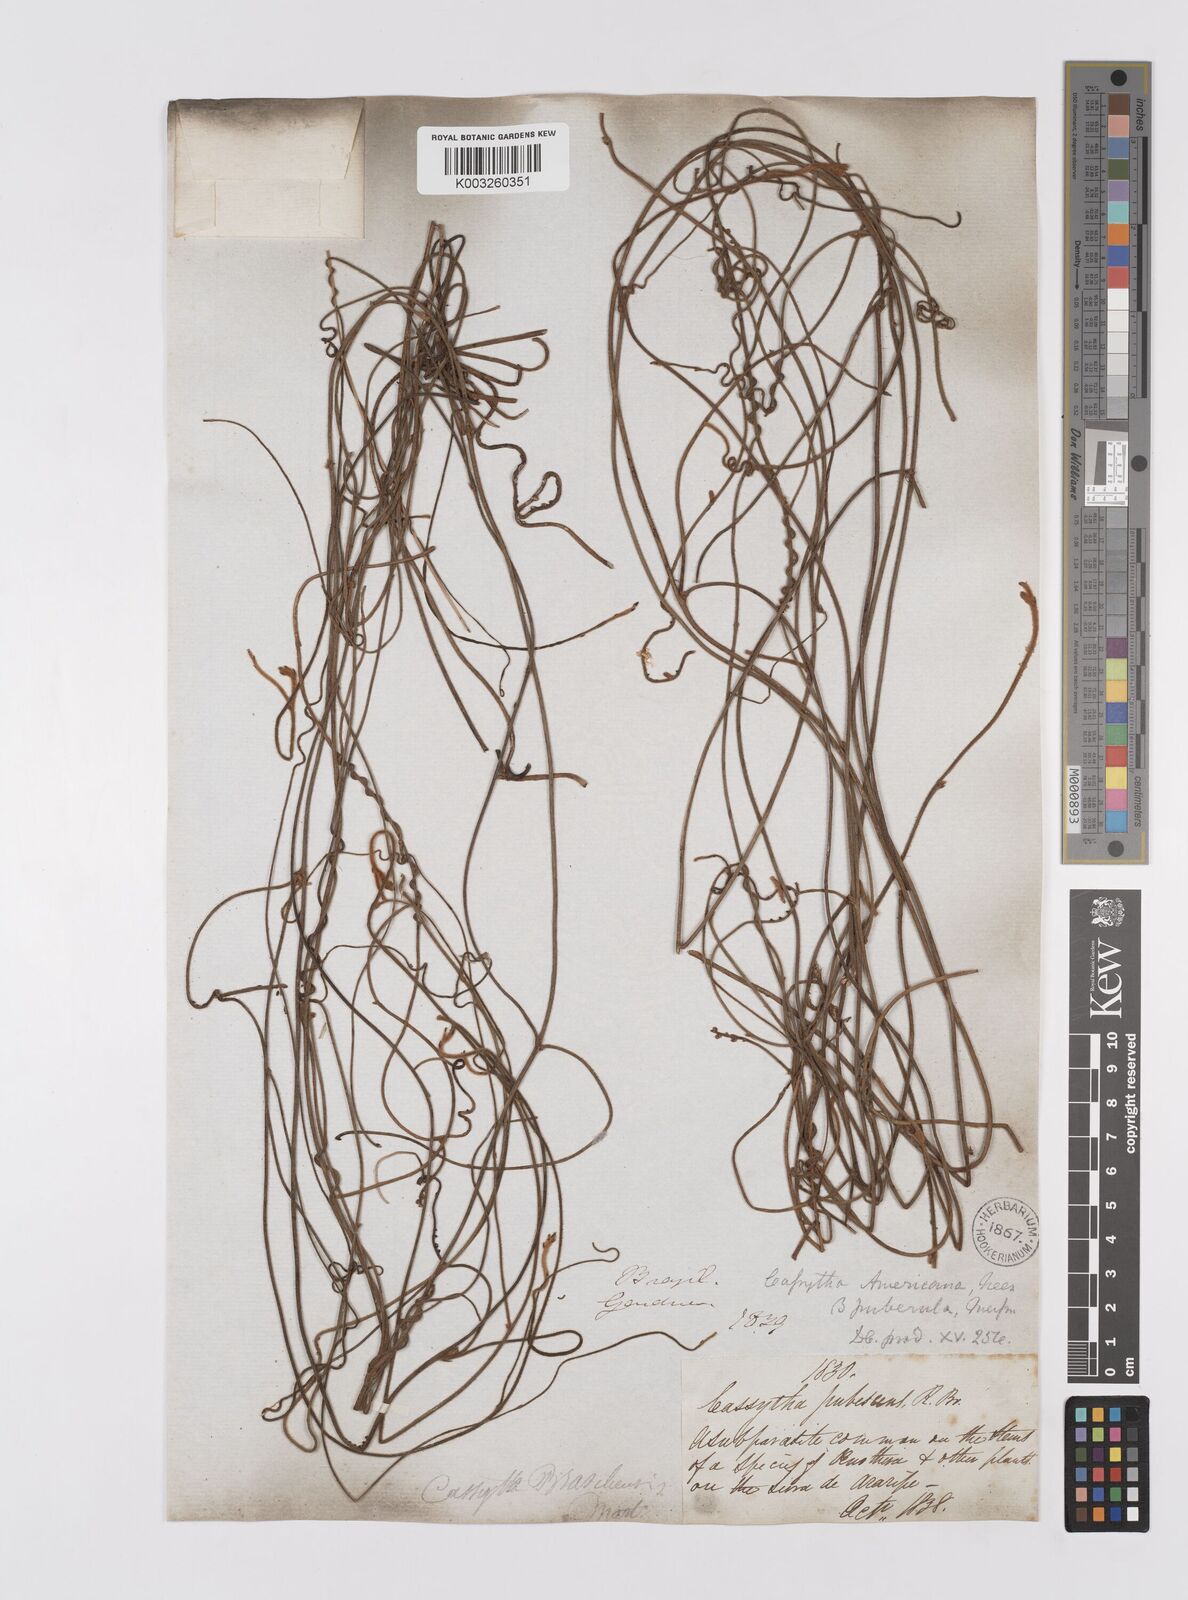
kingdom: Plantae
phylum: Tracheophyta
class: Magnoliopsida
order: Laurales
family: Lauraceae
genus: Cassytha
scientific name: Cassytha filiformis
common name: Dodder-laurel
